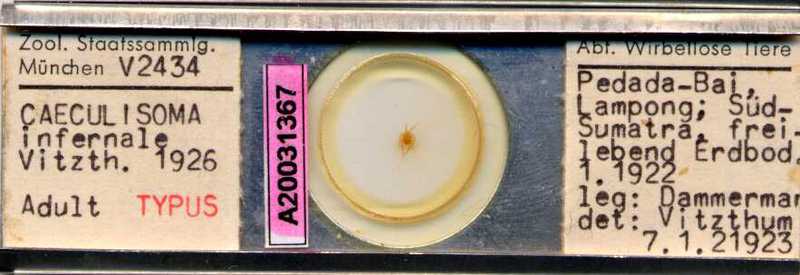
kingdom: Animalia
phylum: Arthropoda
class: Arachnida
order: Trombidiformes
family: Erythraeidae
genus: Caeculisoma
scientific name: Caeculisoma infernale
